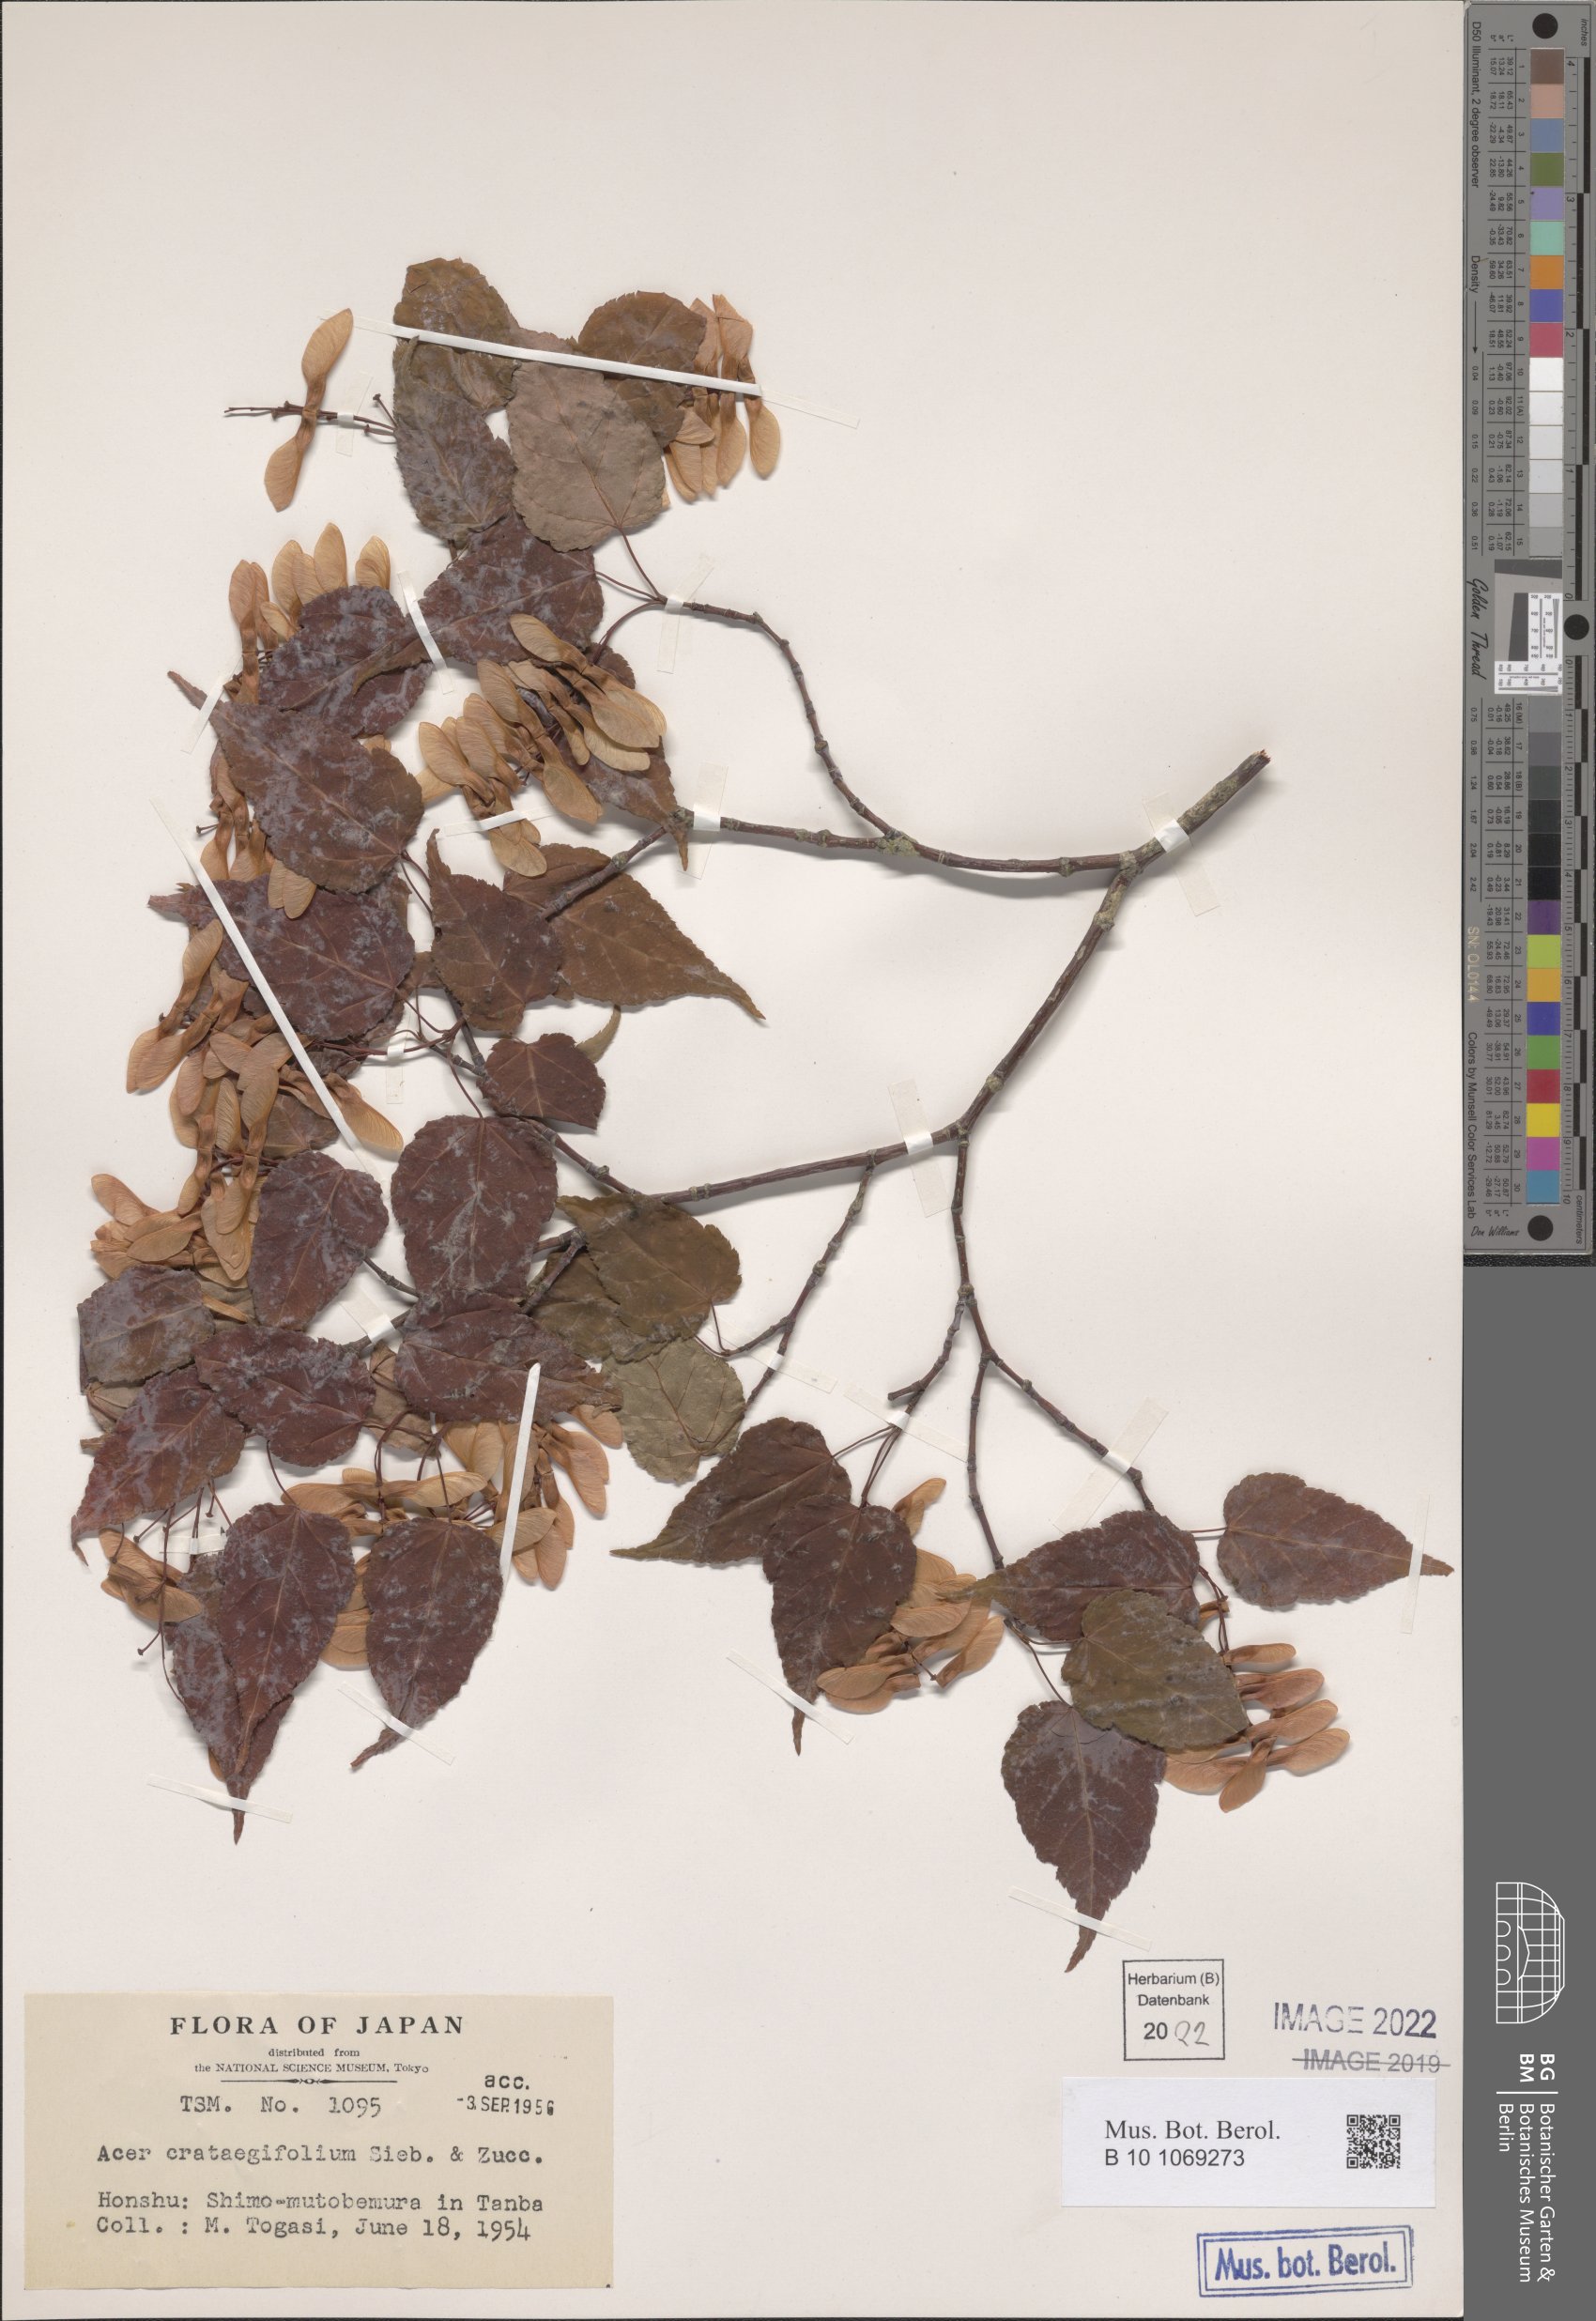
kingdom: Plantae
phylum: Tracheophyta
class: Magnoliopsida
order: Sapindales
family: Sapindaceae
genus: Acer
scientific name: Acer crataegifolium
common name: Hawthorn-leaf maple
